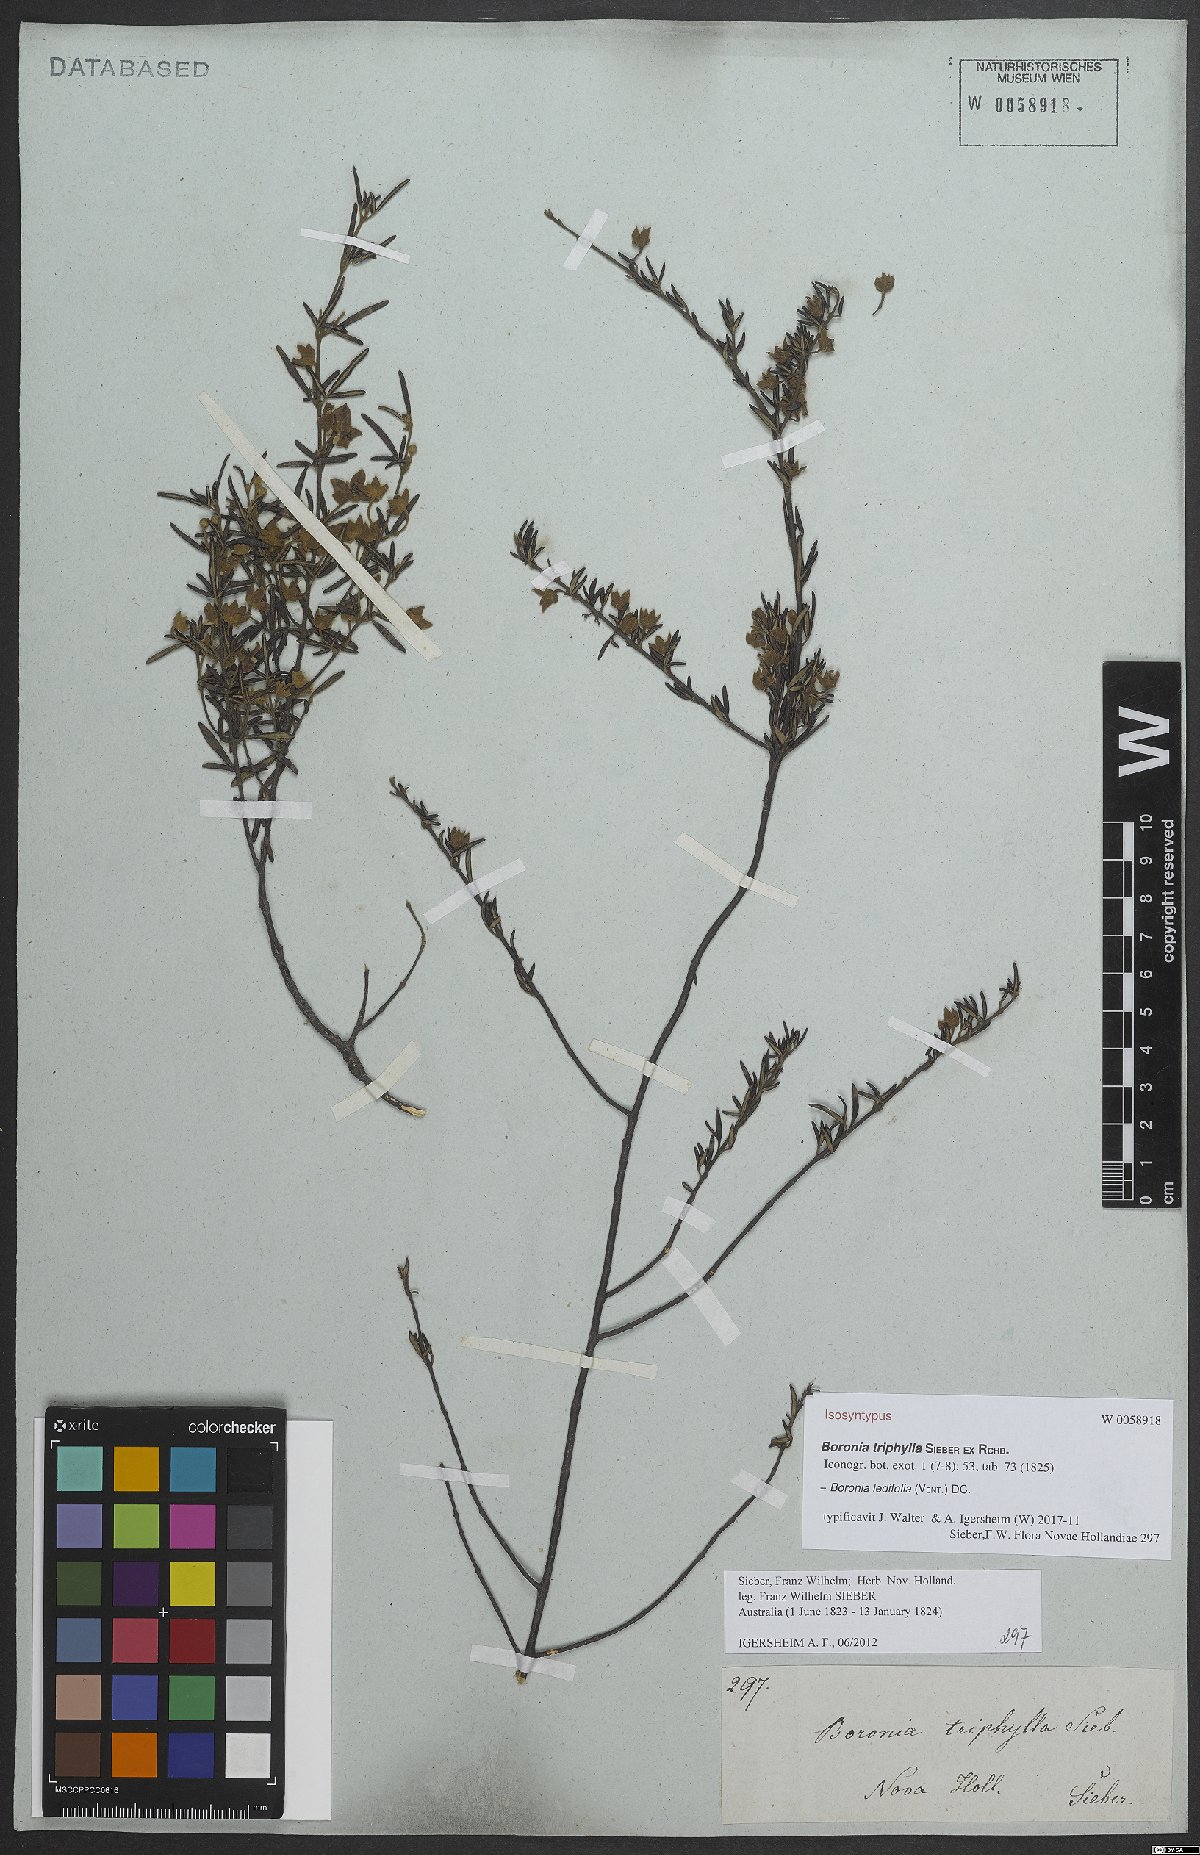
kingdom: Plantae
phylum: Tracheophyta
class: Magnoliopsida
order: Sapindales
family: Rutaceae
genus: Boronia
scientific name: Boronia ledifolia
